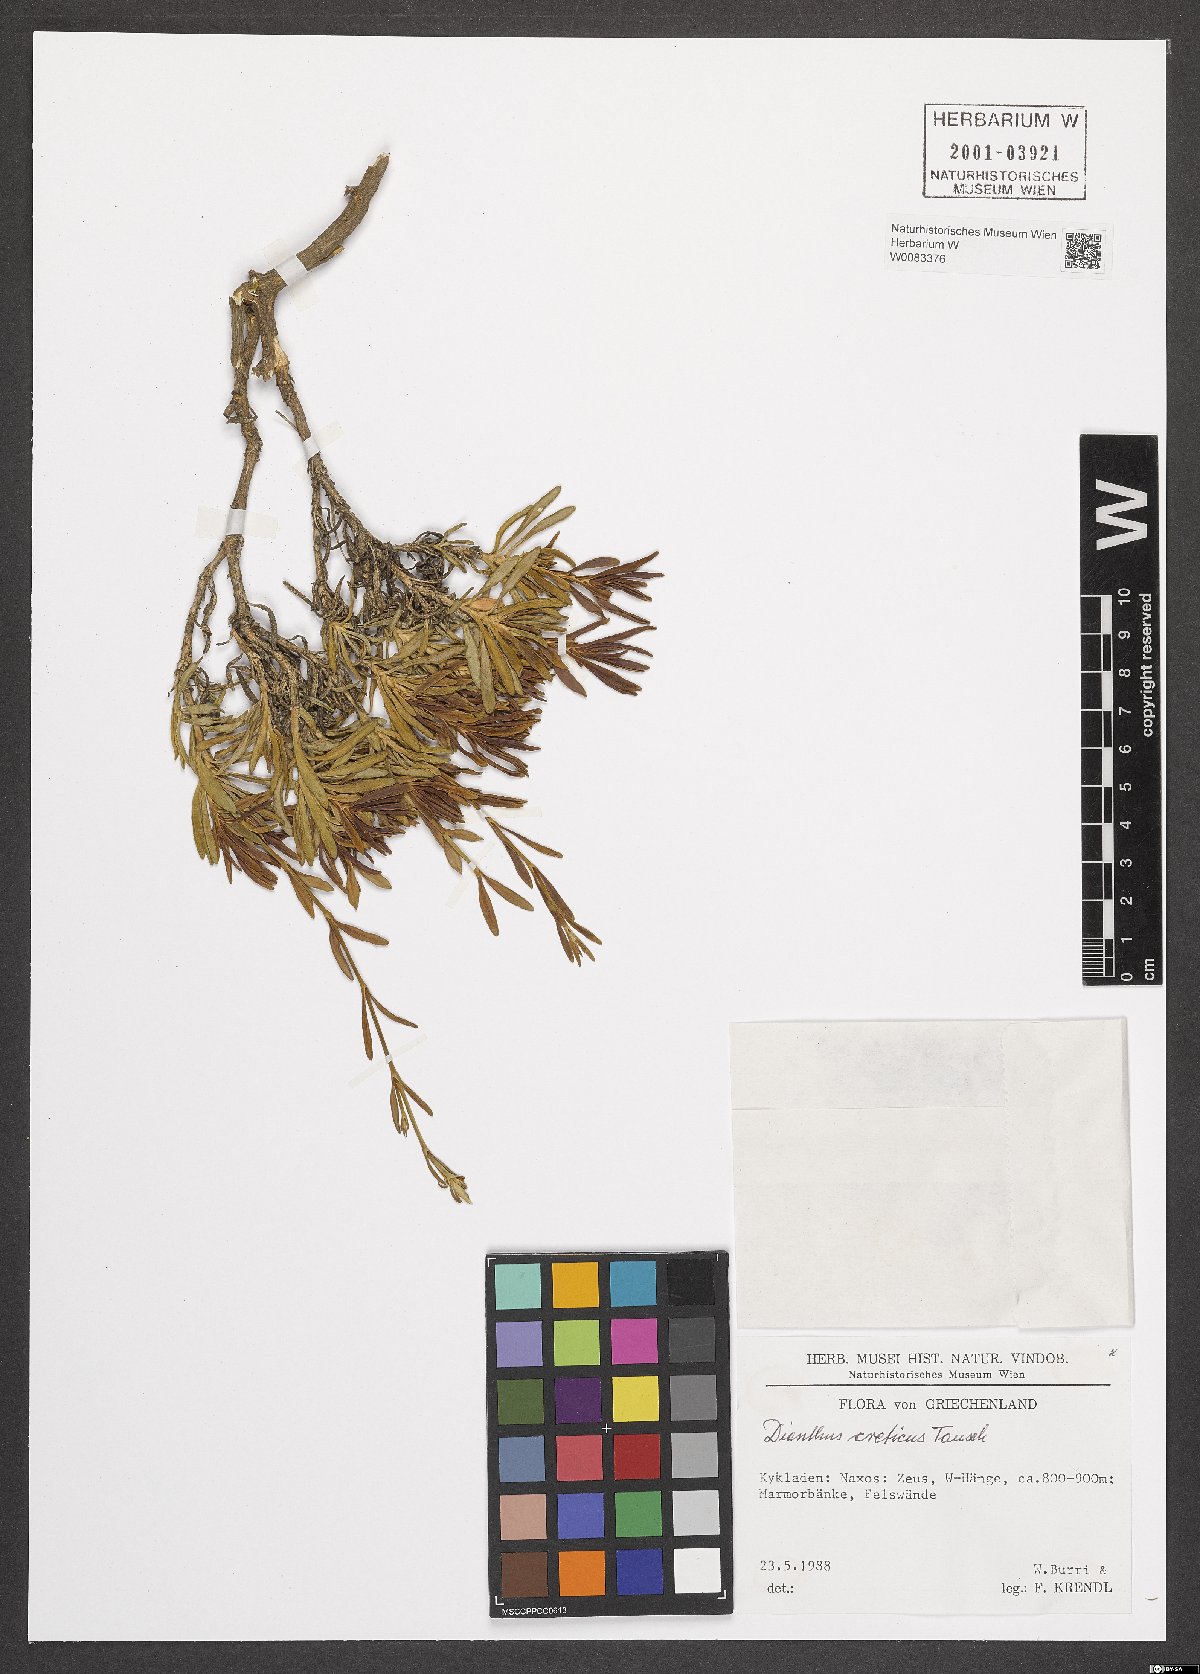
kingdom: Plantae
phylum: Tracheophyta
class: Magnoliopsida
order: Caryophyllales
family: Caryophyllaceae
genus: Dianthus
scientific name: Dianthus cretaceus
